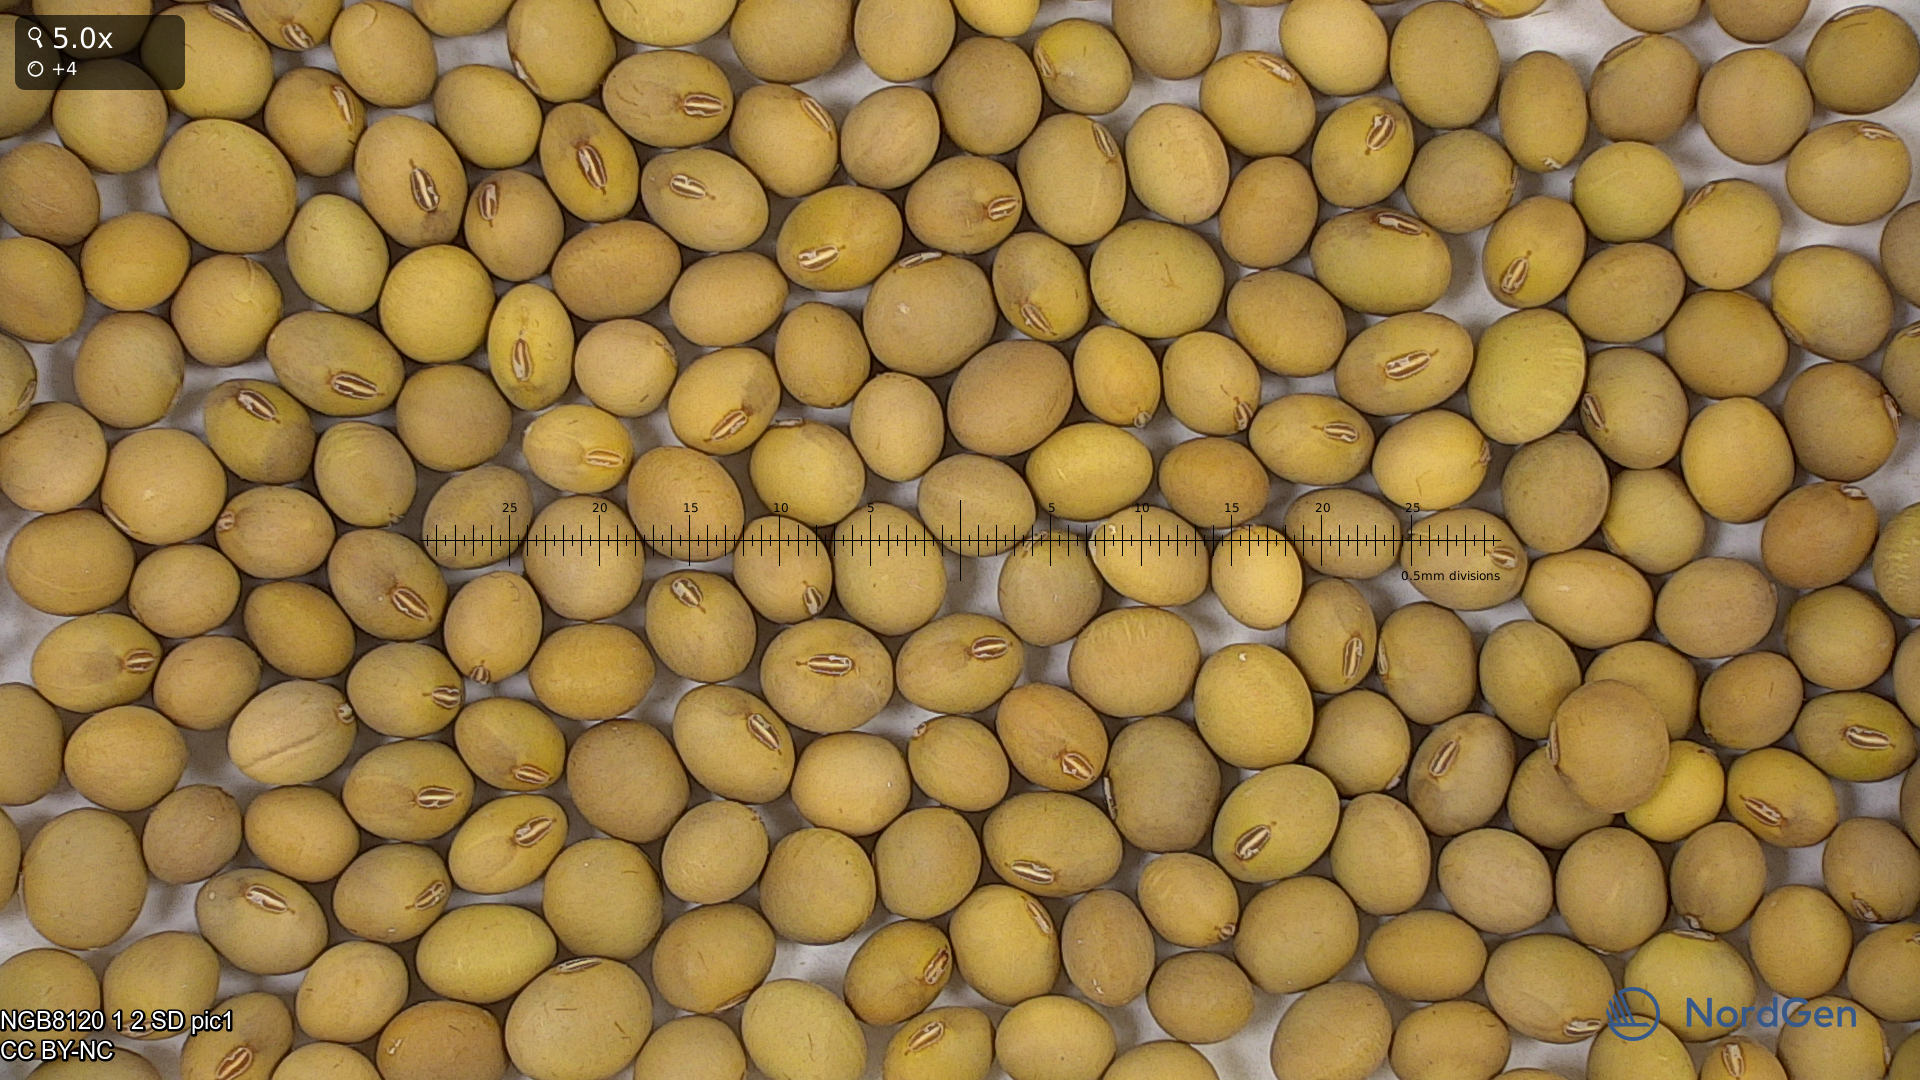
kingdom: Plantae
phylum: Tracheophyta
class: Magnoliopsida
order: Fabales
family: Fabaceae
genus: Glycine
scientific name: Glycine max
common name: Soya-bean
